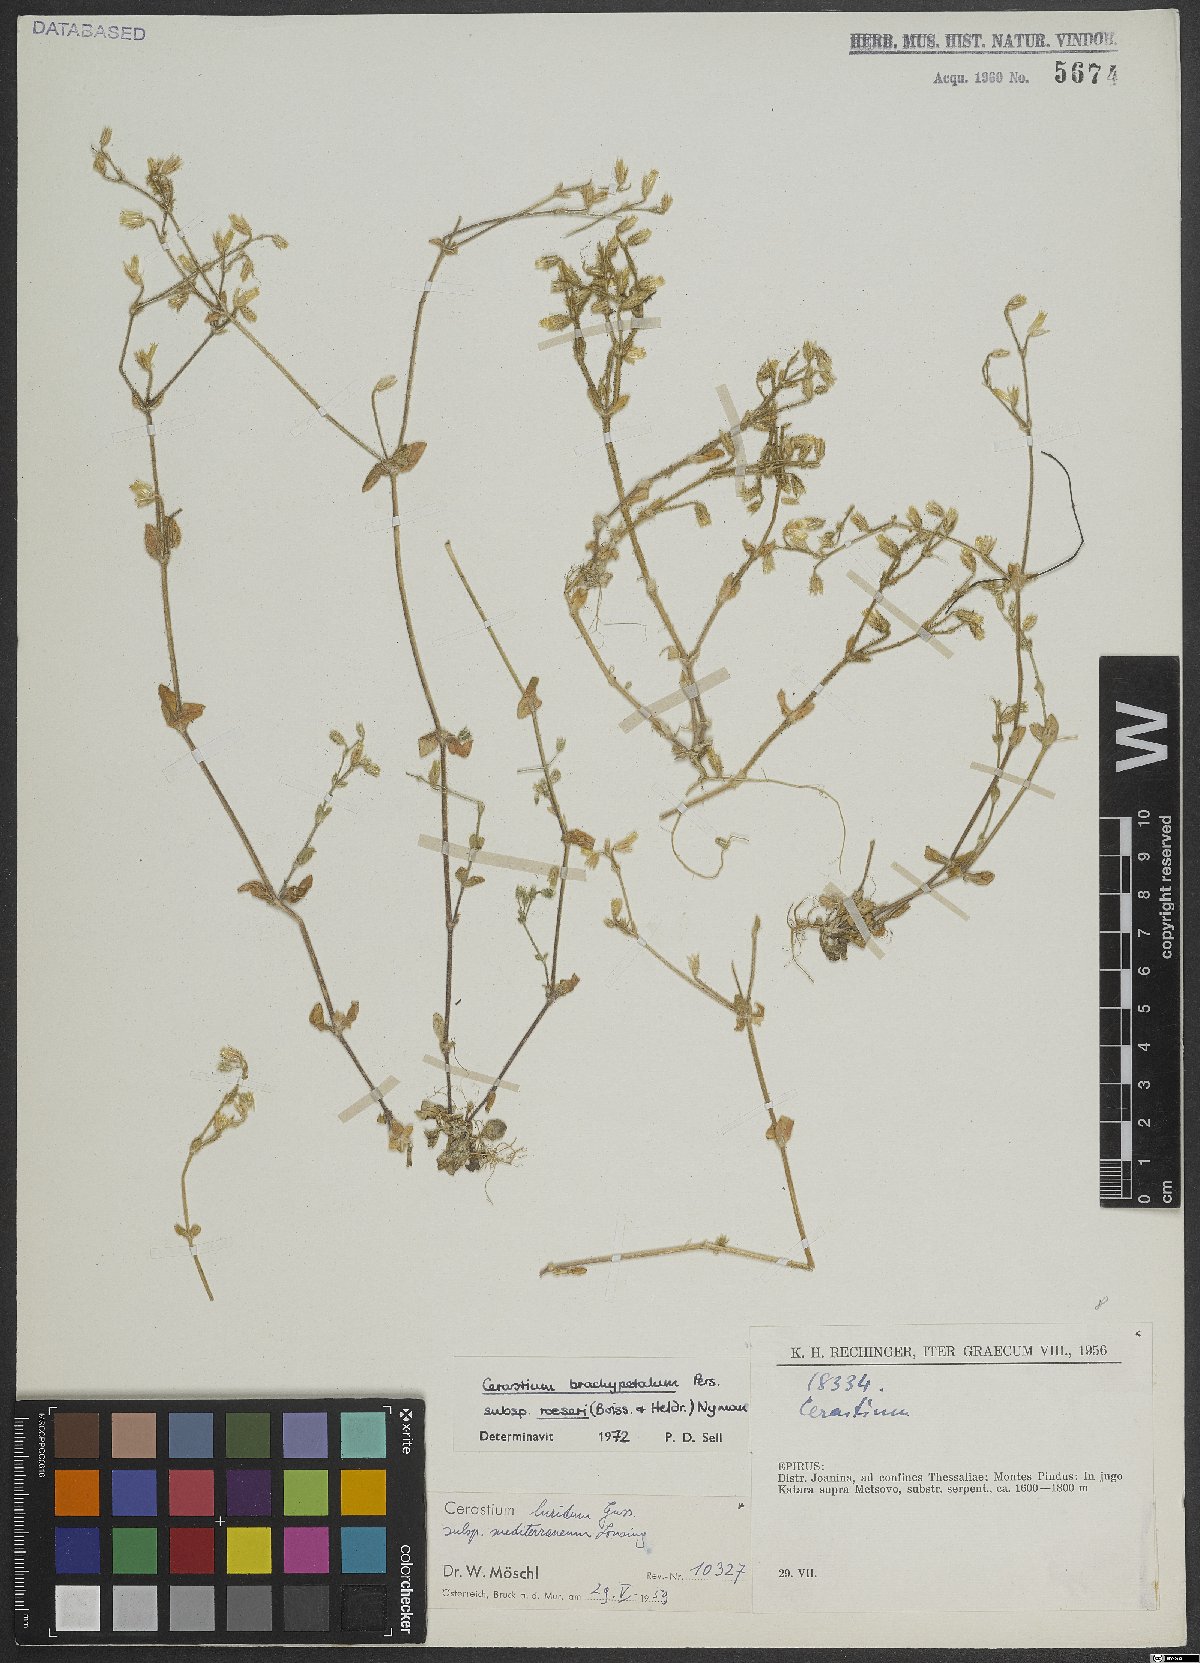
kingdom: Plantae
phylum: Tracheophyta
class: Magnoliopsida
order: Caryophyllales
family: Caryophyllaceae
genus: Cerastium
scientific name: Cerastium brachypetalum
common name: Grey mouse-ear
